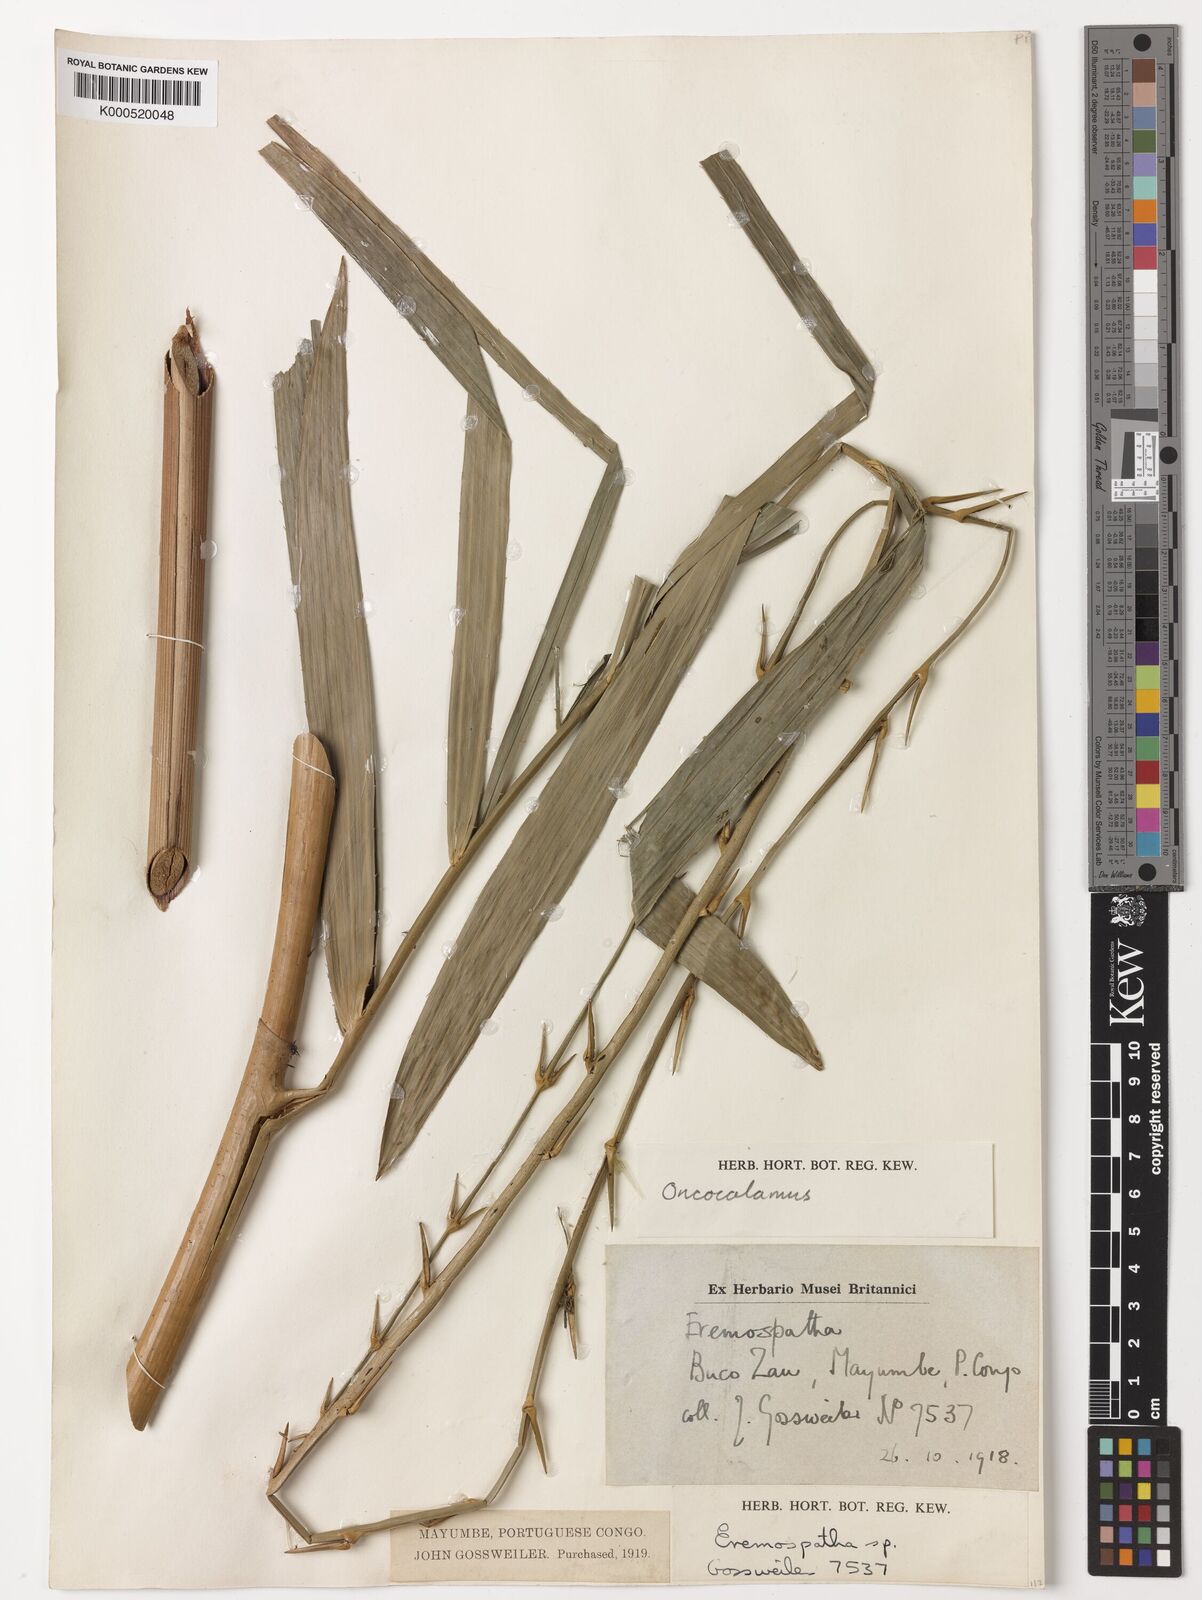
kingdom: Plantae
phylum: Tracheophyta
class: Liliopsida
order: Arecales
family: Arecaceae
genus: Oncocalamus
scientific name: Oncocalamus
